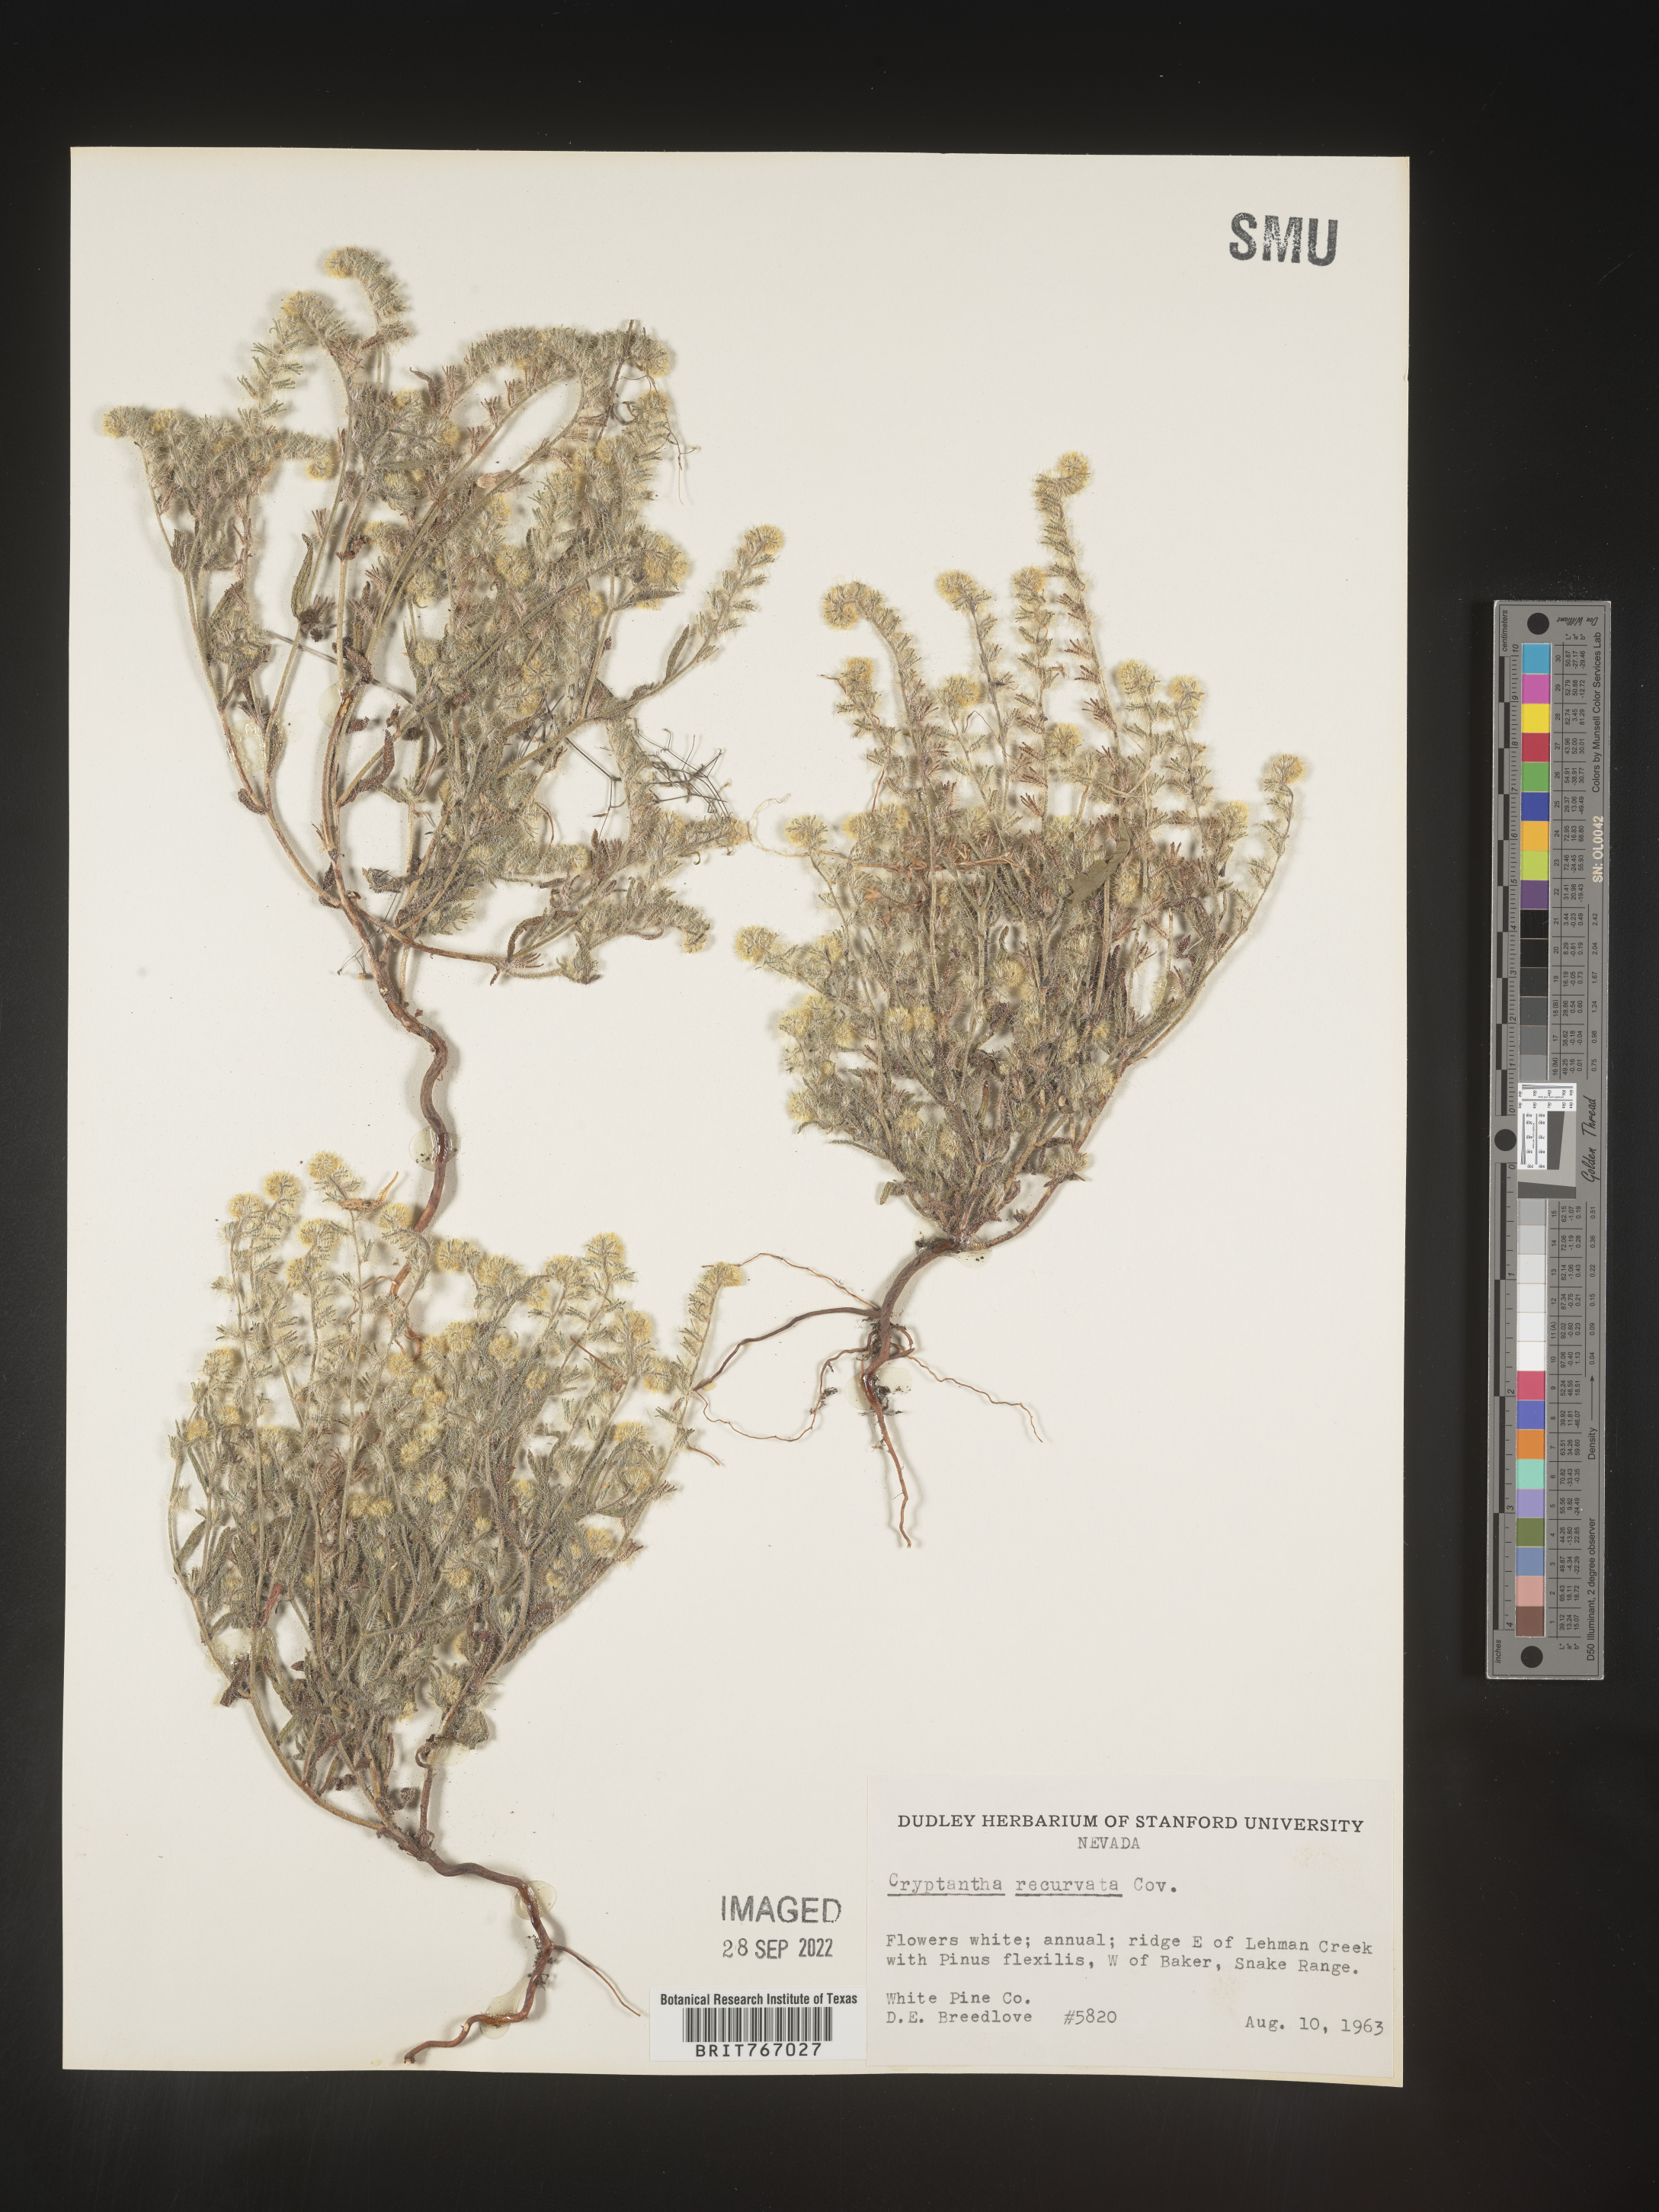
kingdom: Plantae
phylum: Tracheophyta
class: Magnoliopsida
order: Boraginales
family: Boraginaceae
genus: Cryptantha
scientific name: Cryptantha
